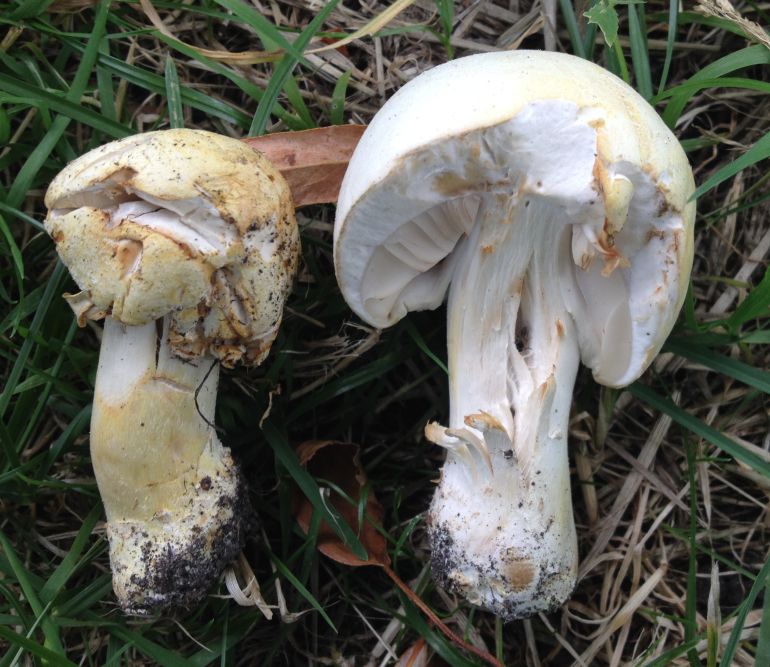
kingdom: Fungi
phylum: Basidiomycota
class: Agaricomycetes
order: Agaricales
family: Agaricaceae
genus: Agaricus
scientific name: Agaricus arvensis
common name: ager-champignon
